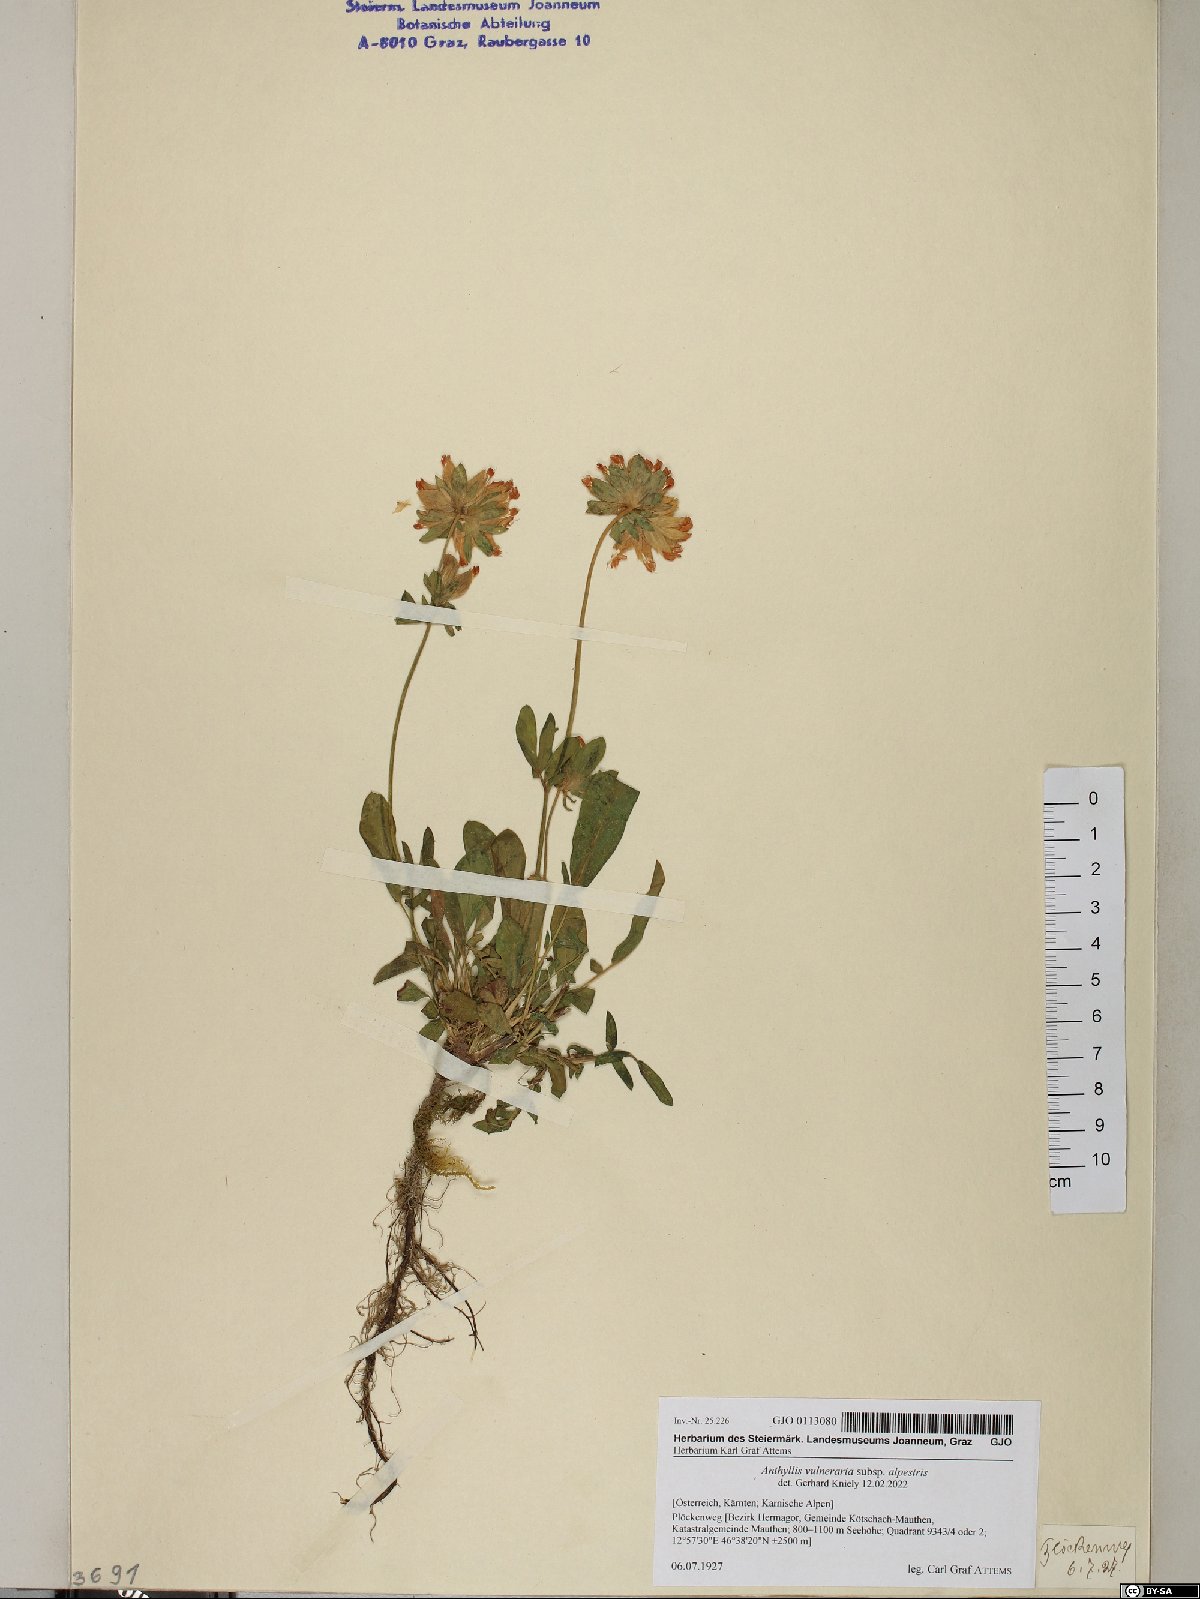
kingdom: Plantae
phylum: Tracheophyta
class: Magnoliopsida
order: Fabales
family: Fabaceae
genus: Anthyllis
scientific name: Anthyllis vulneraria
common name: Kidney vetch
